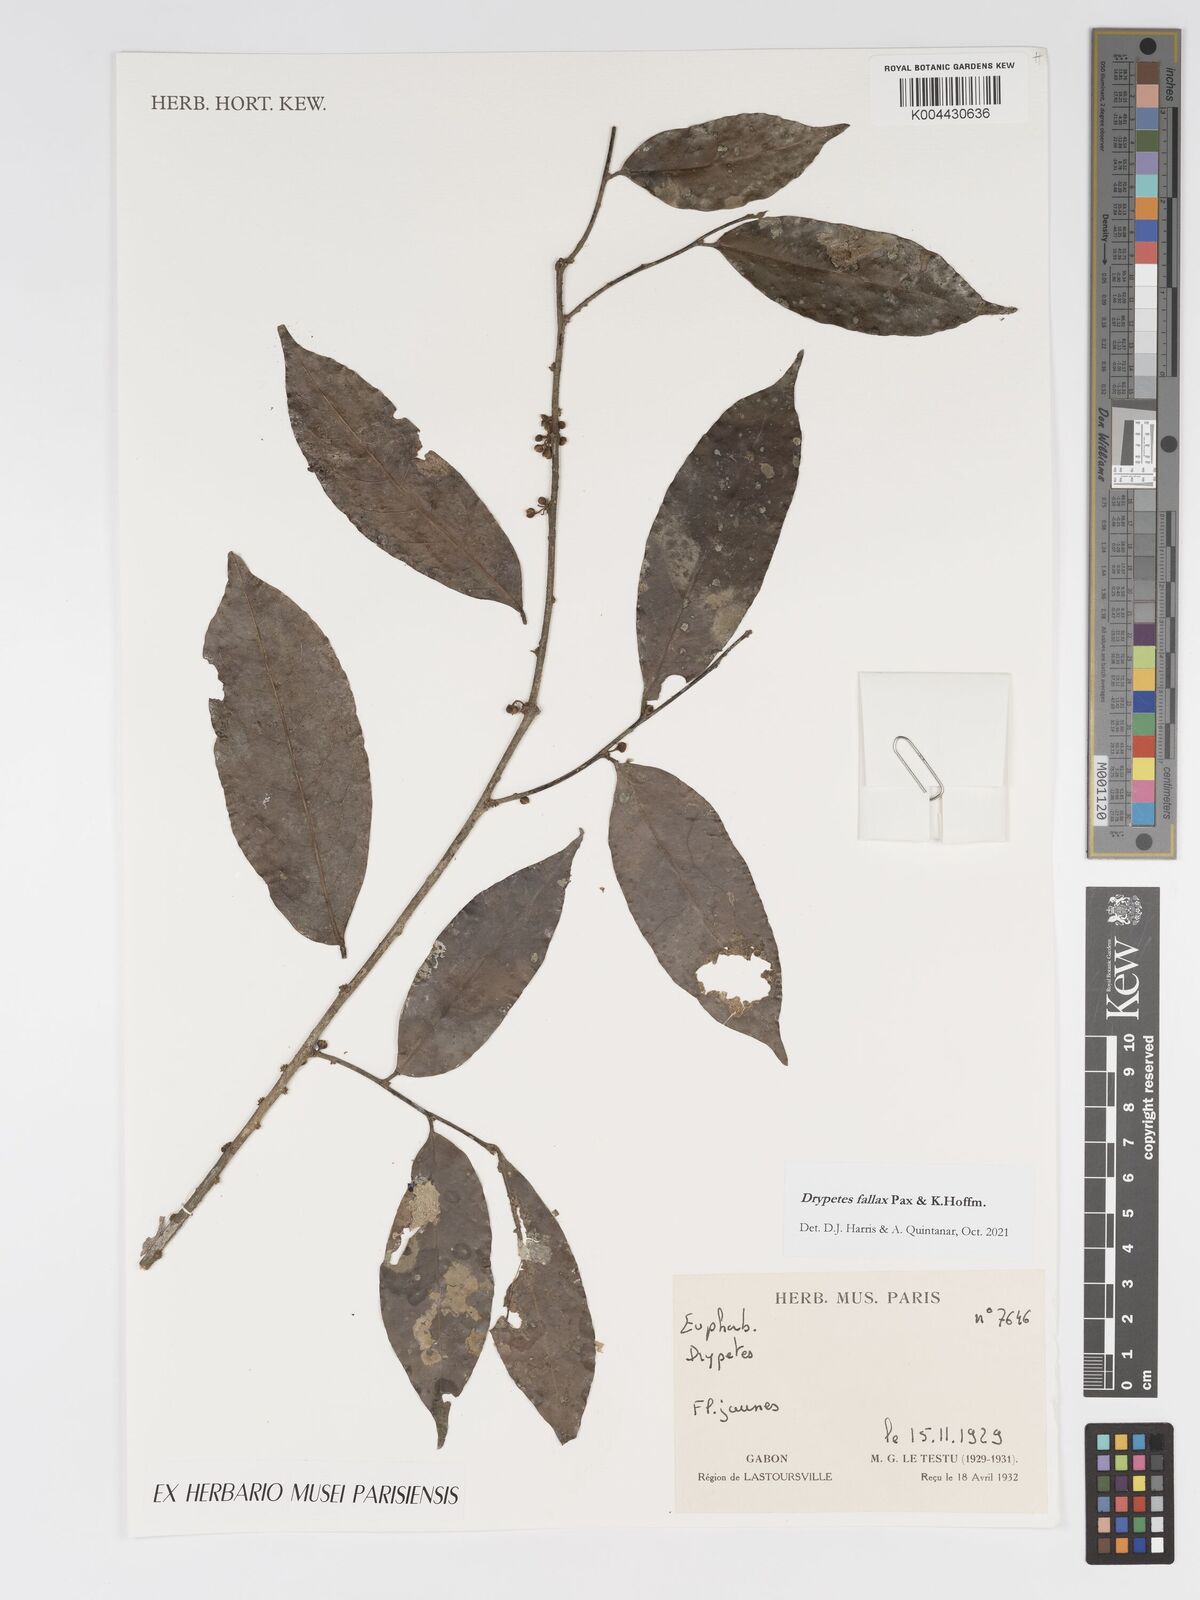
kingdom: Plantae
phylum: Tracheophyta
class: Magnoliopsida
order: Malpighiales
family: Putranjivaceae
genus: Drypetes
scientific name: Drypetes fallax
